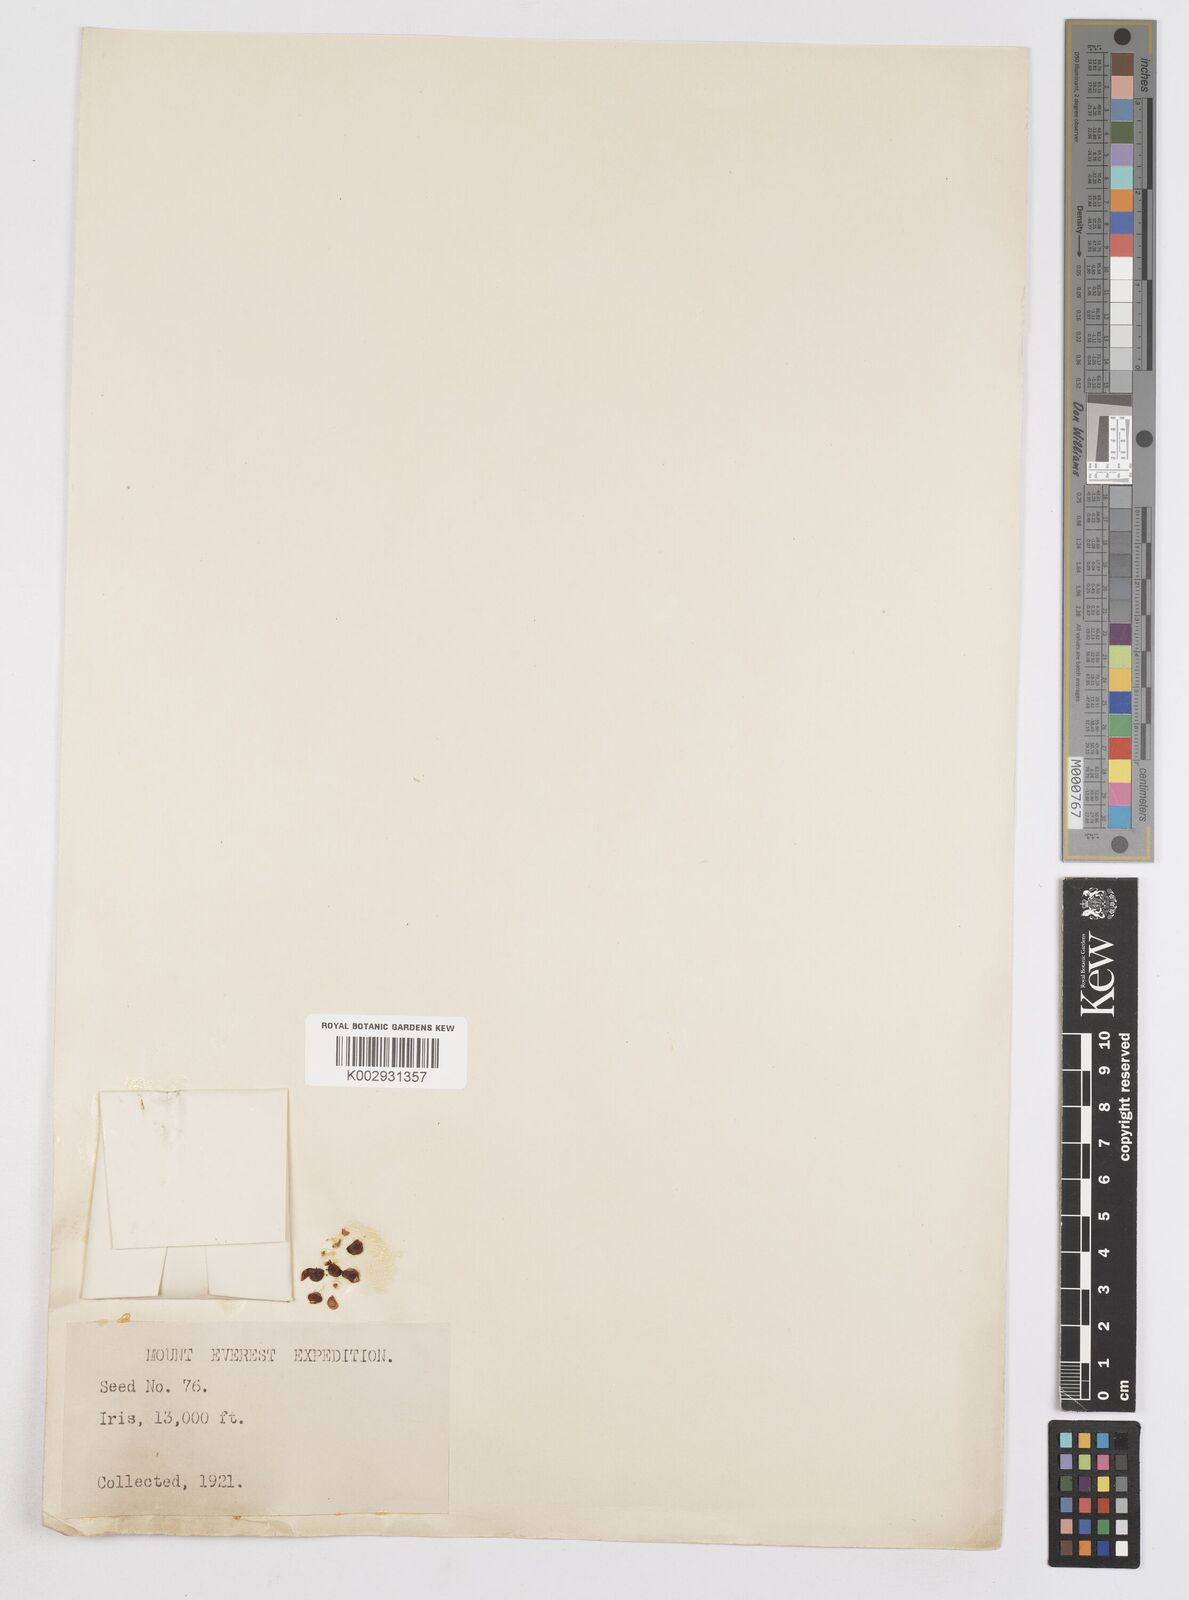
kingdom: Plantae
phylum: Tracheophyta
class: Liliopsida
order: Asparagales
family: Iridaceae
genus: Iris
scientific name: Iris
